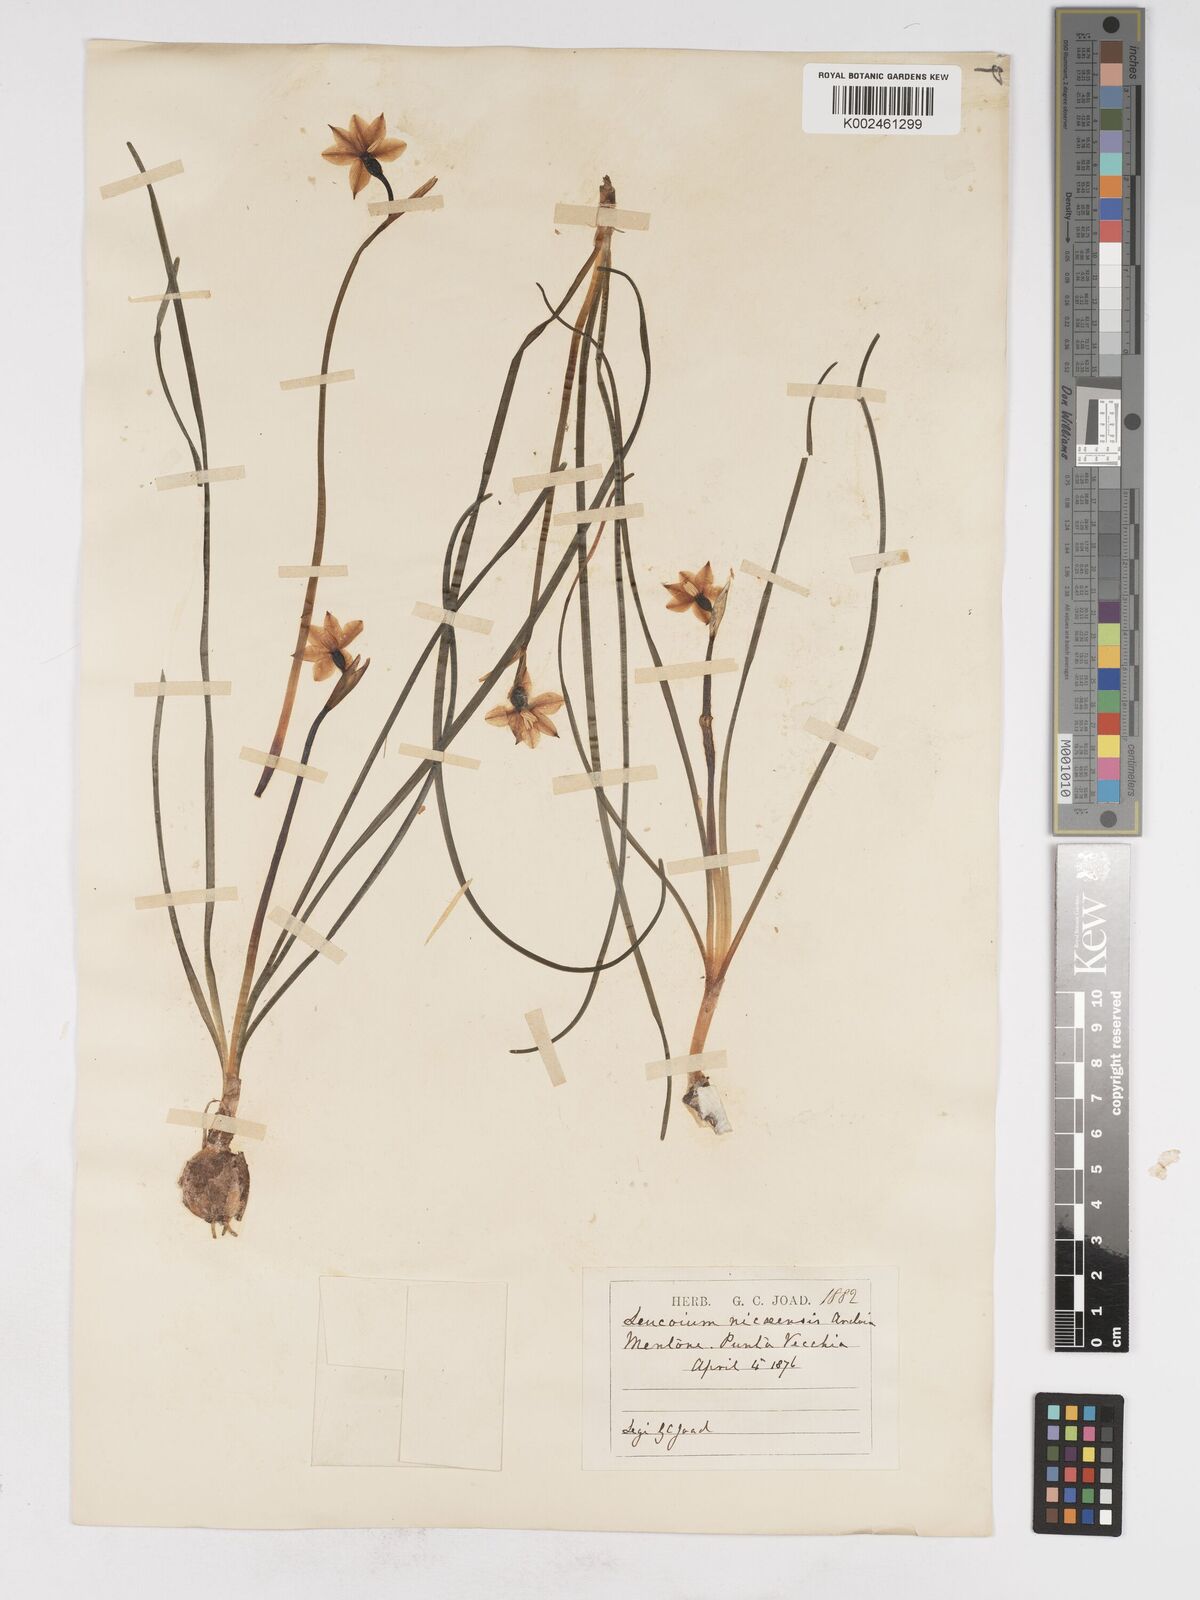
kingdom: Plantae
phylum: Tracheophyta
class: Liliopsida
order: Asparagales
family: Amaryllidaceae
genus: Acis
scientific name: Acis nicaeensis
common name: French snowflake
